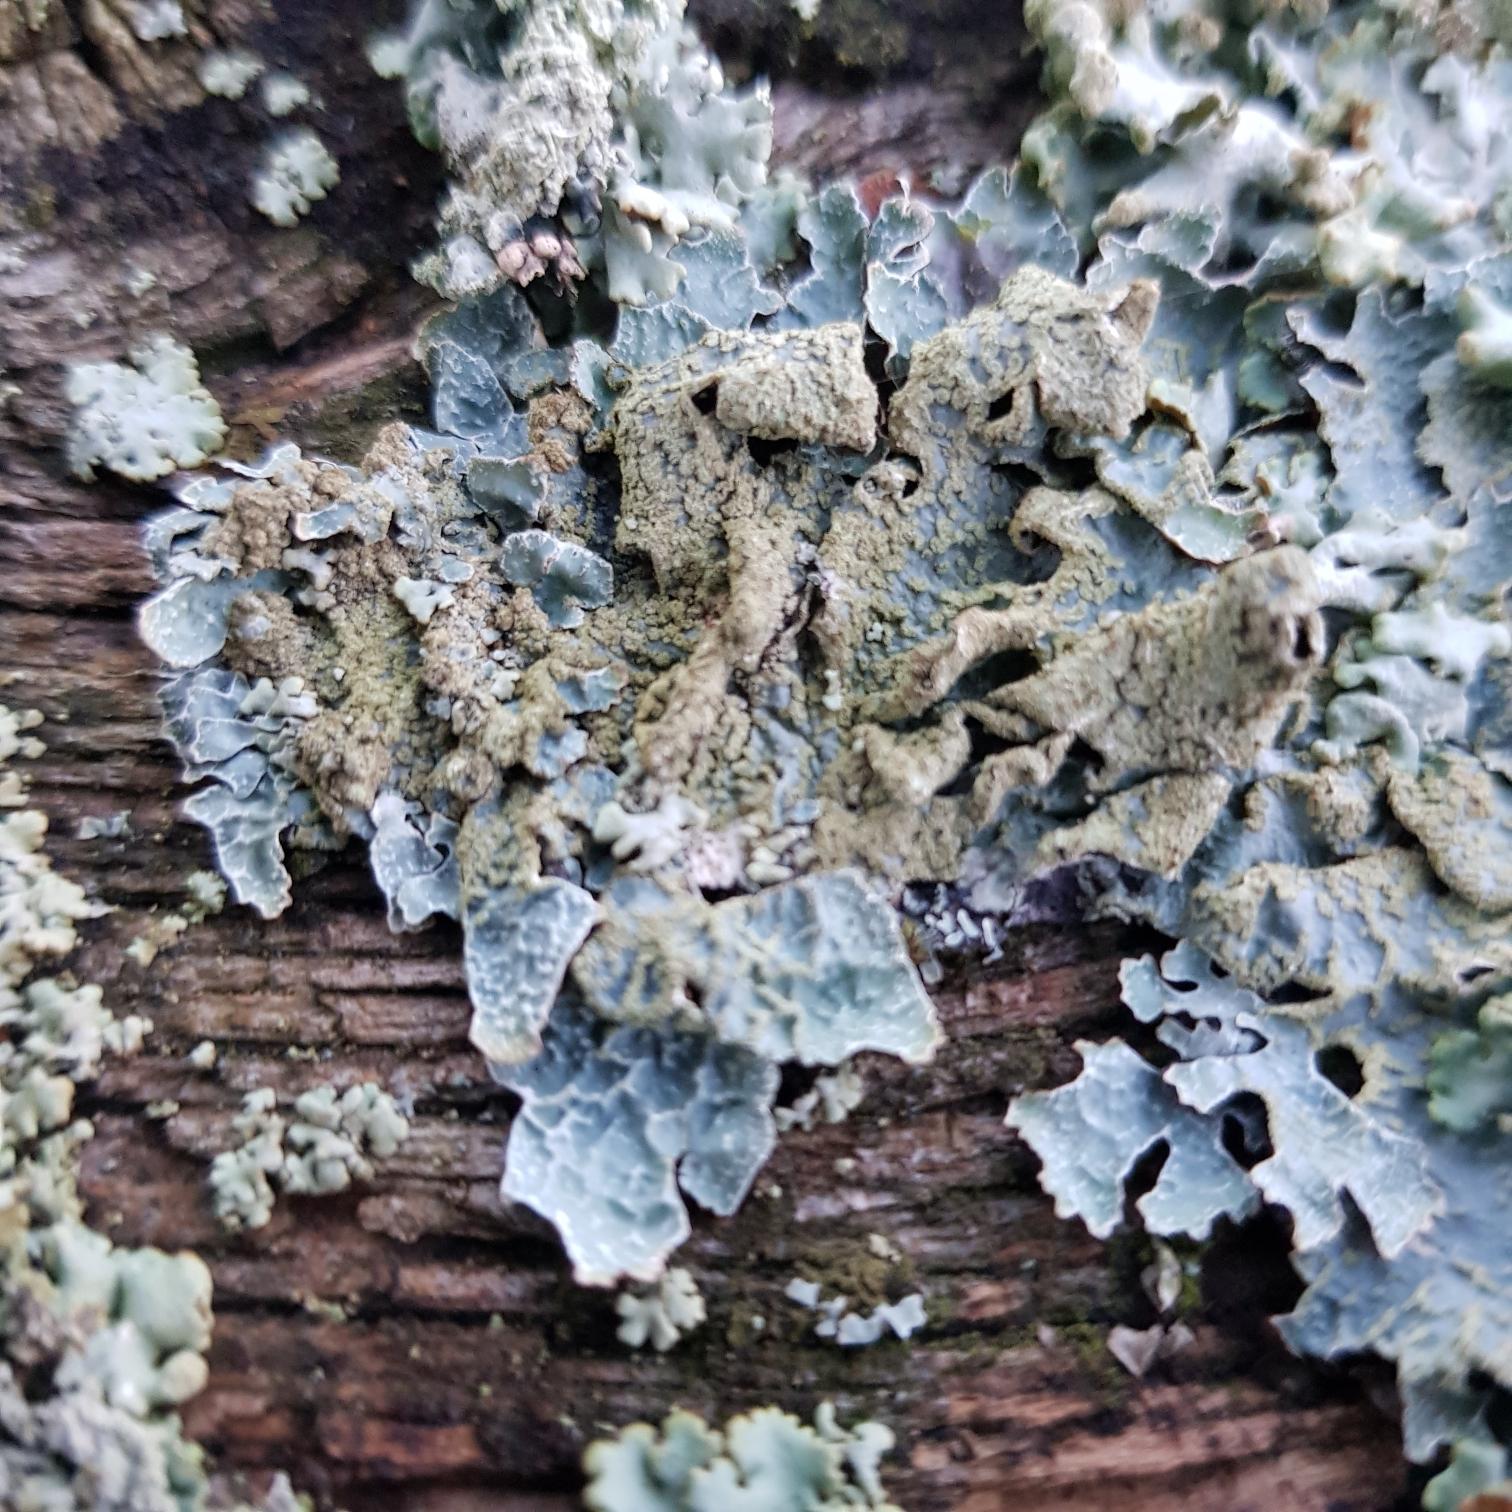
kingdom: Fungi
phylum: Ascomycota
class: Lecanoromycetes
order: Lecanorales
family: Parmeliaceae
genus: Parmelia
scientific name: Parmelia sulcata
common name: Rynket skållav
